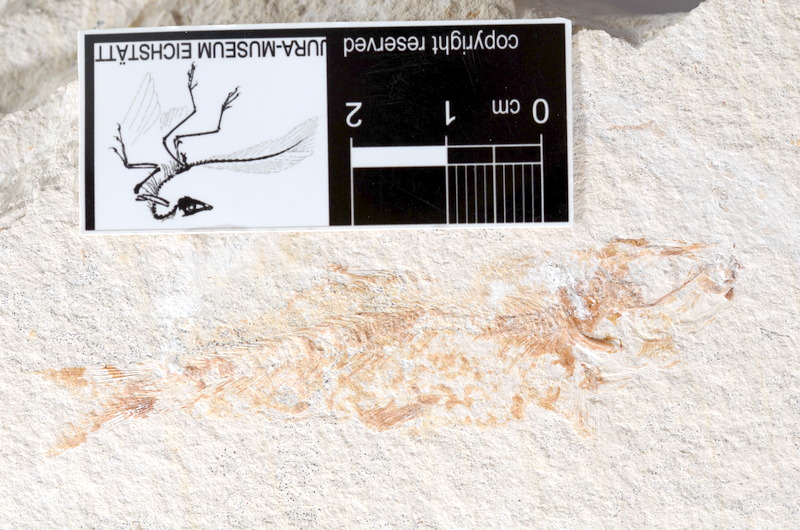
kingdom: Animalia
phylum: Chordata
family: Ascalaboidae
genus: Tharsis
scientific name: Tharsis dubius
